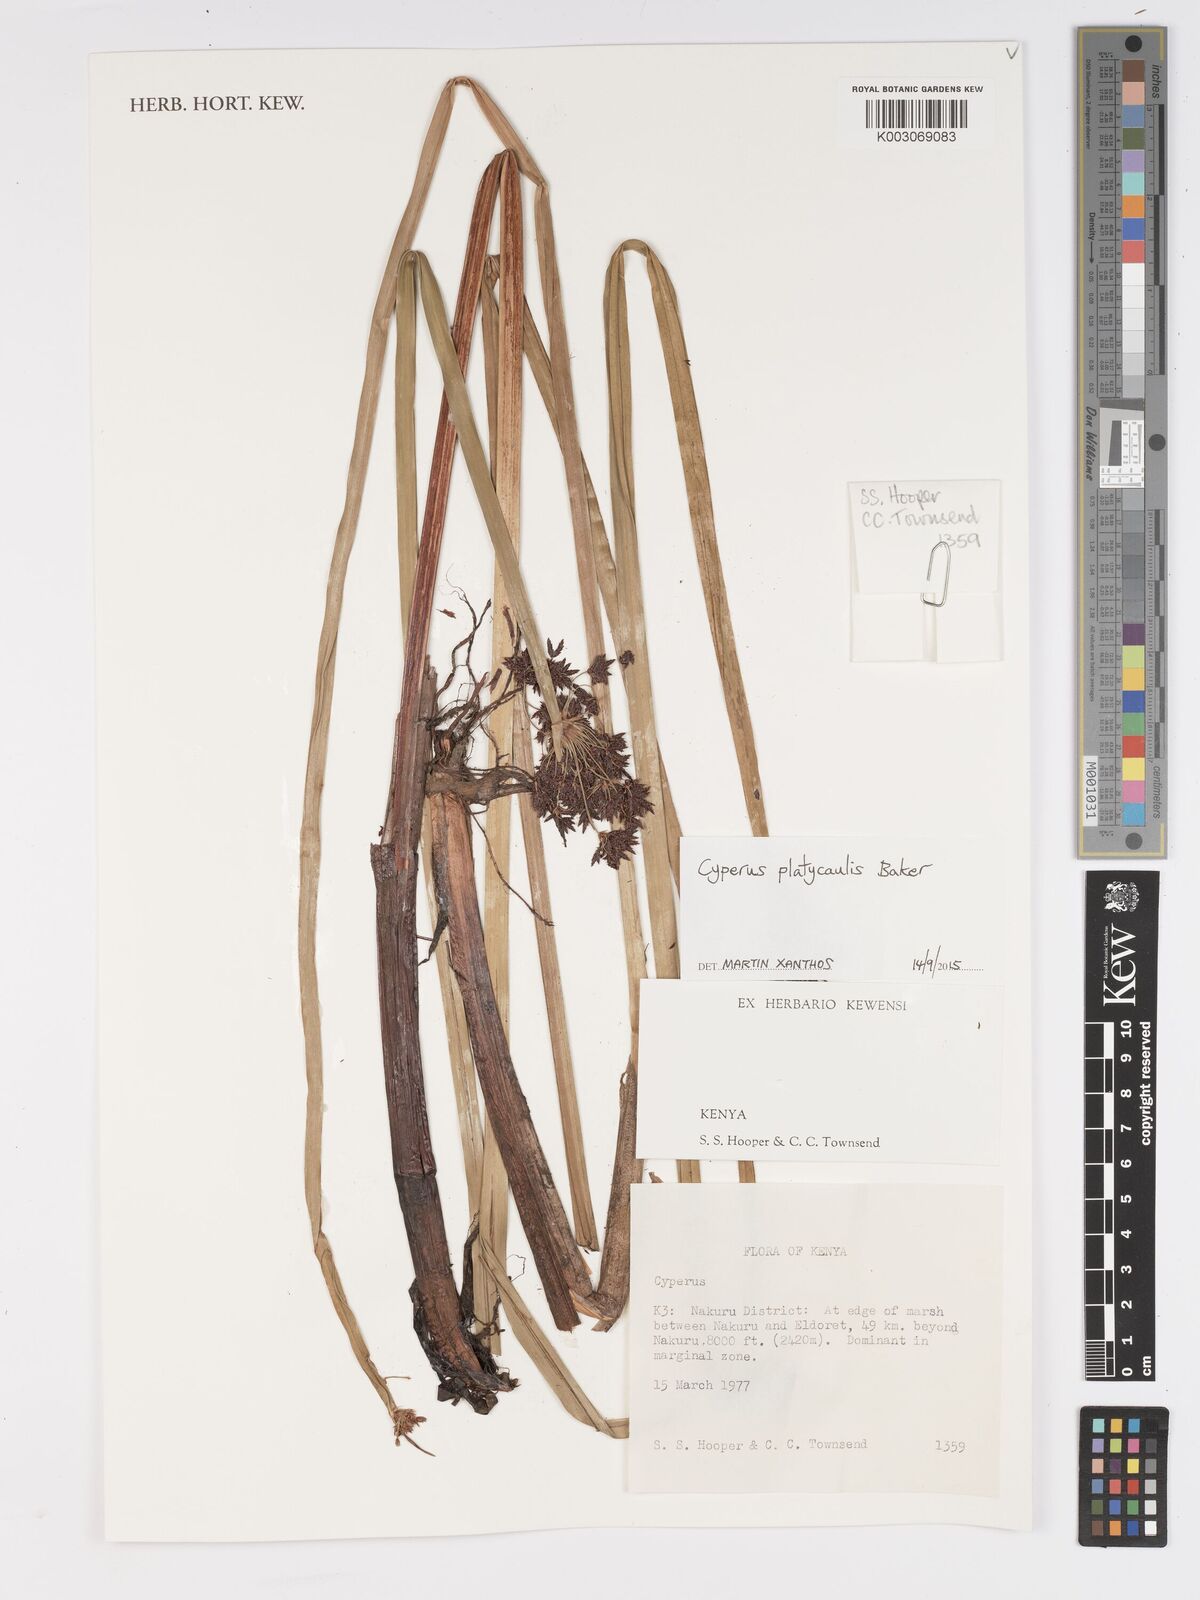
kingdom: Plantae
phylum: Tracheophyta
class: Liliopsida
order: Poales
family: Cyperaceae
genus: Cyperus
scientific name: Cyperus platycaulis
